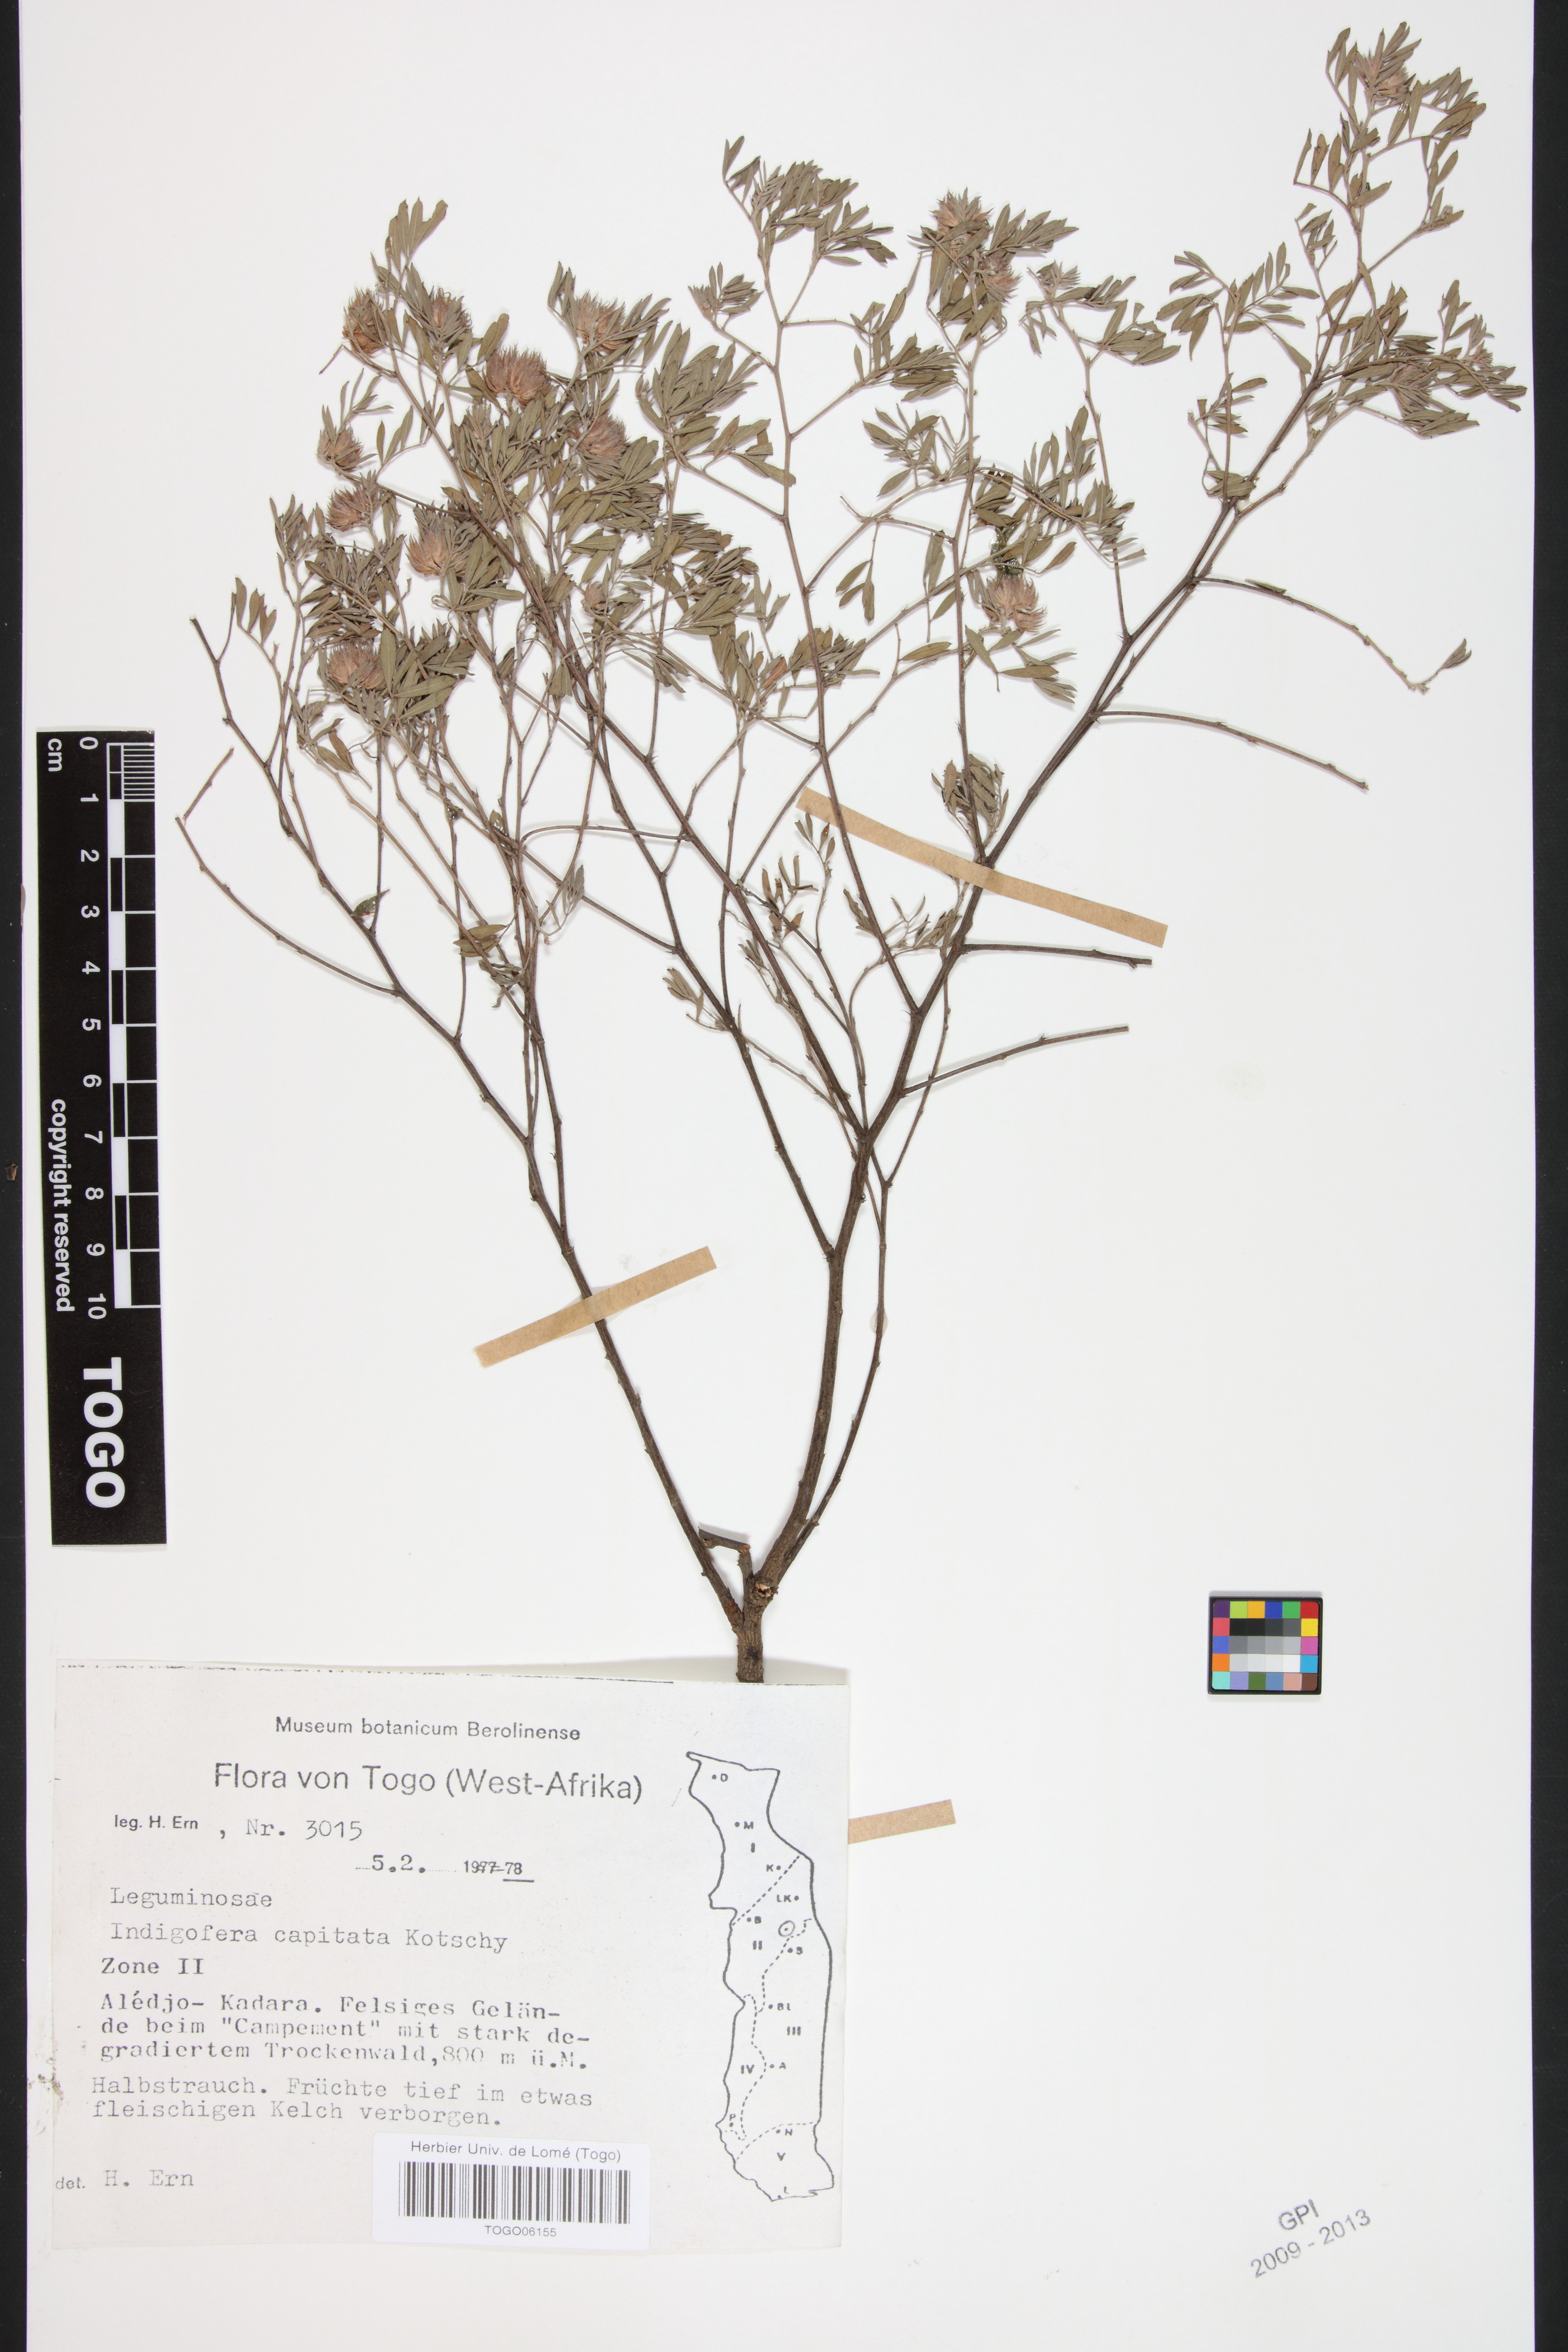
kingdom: Plantae
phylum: Tracheophyta
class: Magnoliopsida
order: Fabales
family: Fabaceae
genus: Indigofera
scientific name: Indigofera capitata
